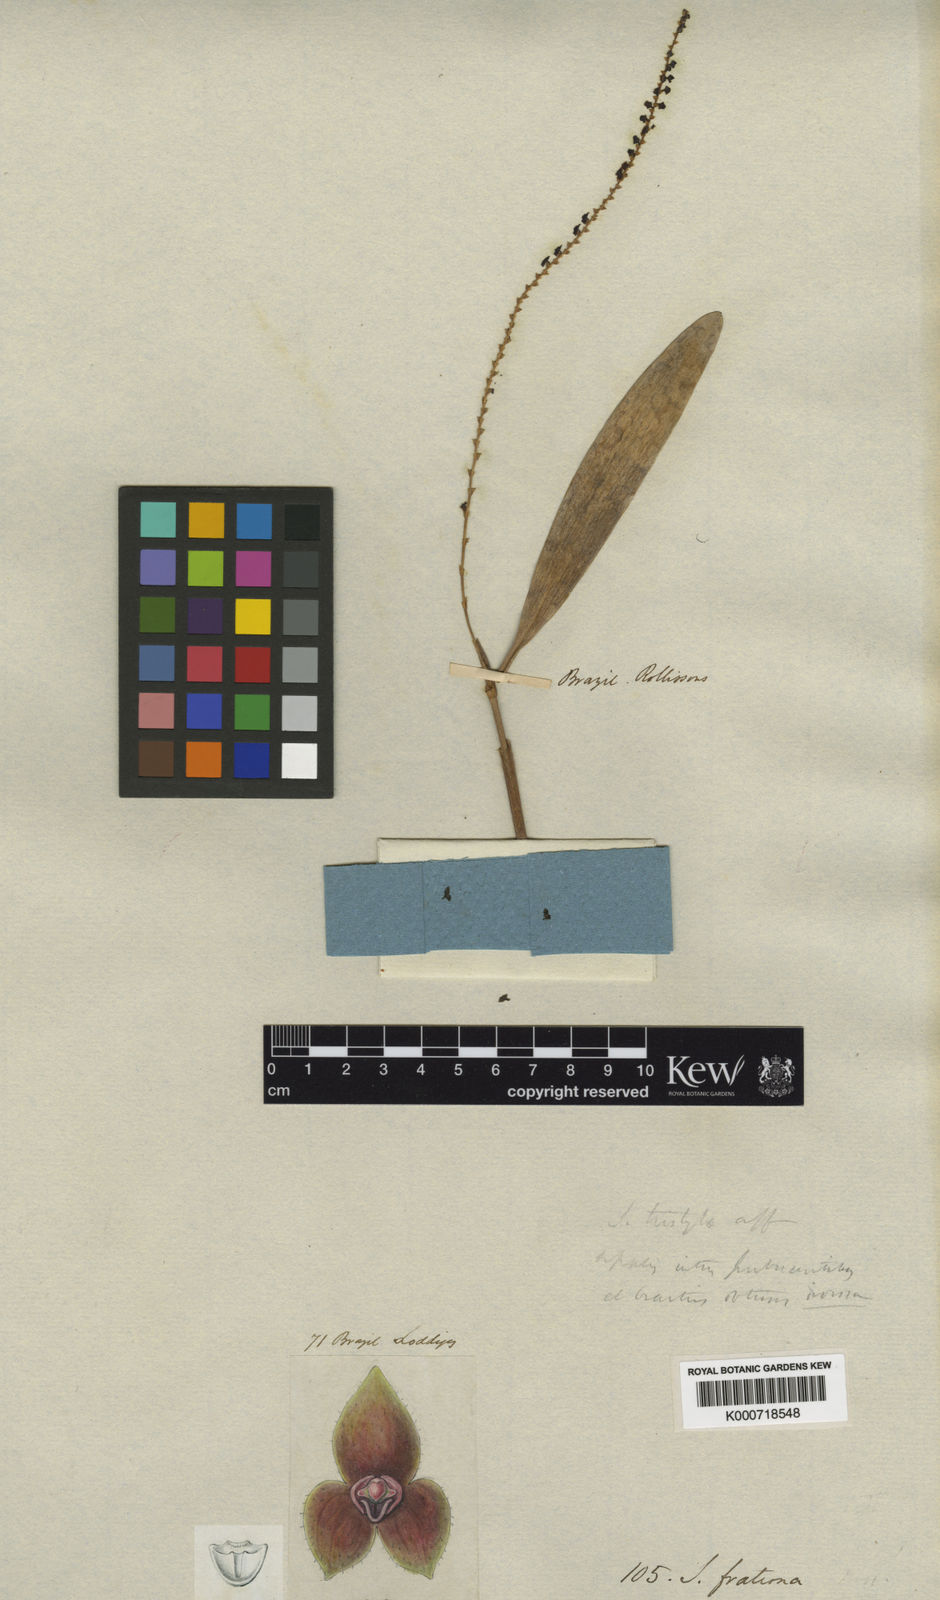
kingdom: Plantae
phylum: Tracheophyta
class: Liliopsida
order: Asparagales
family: Orchidaceae
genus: Stelis
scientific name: Stelis papaquerensis
